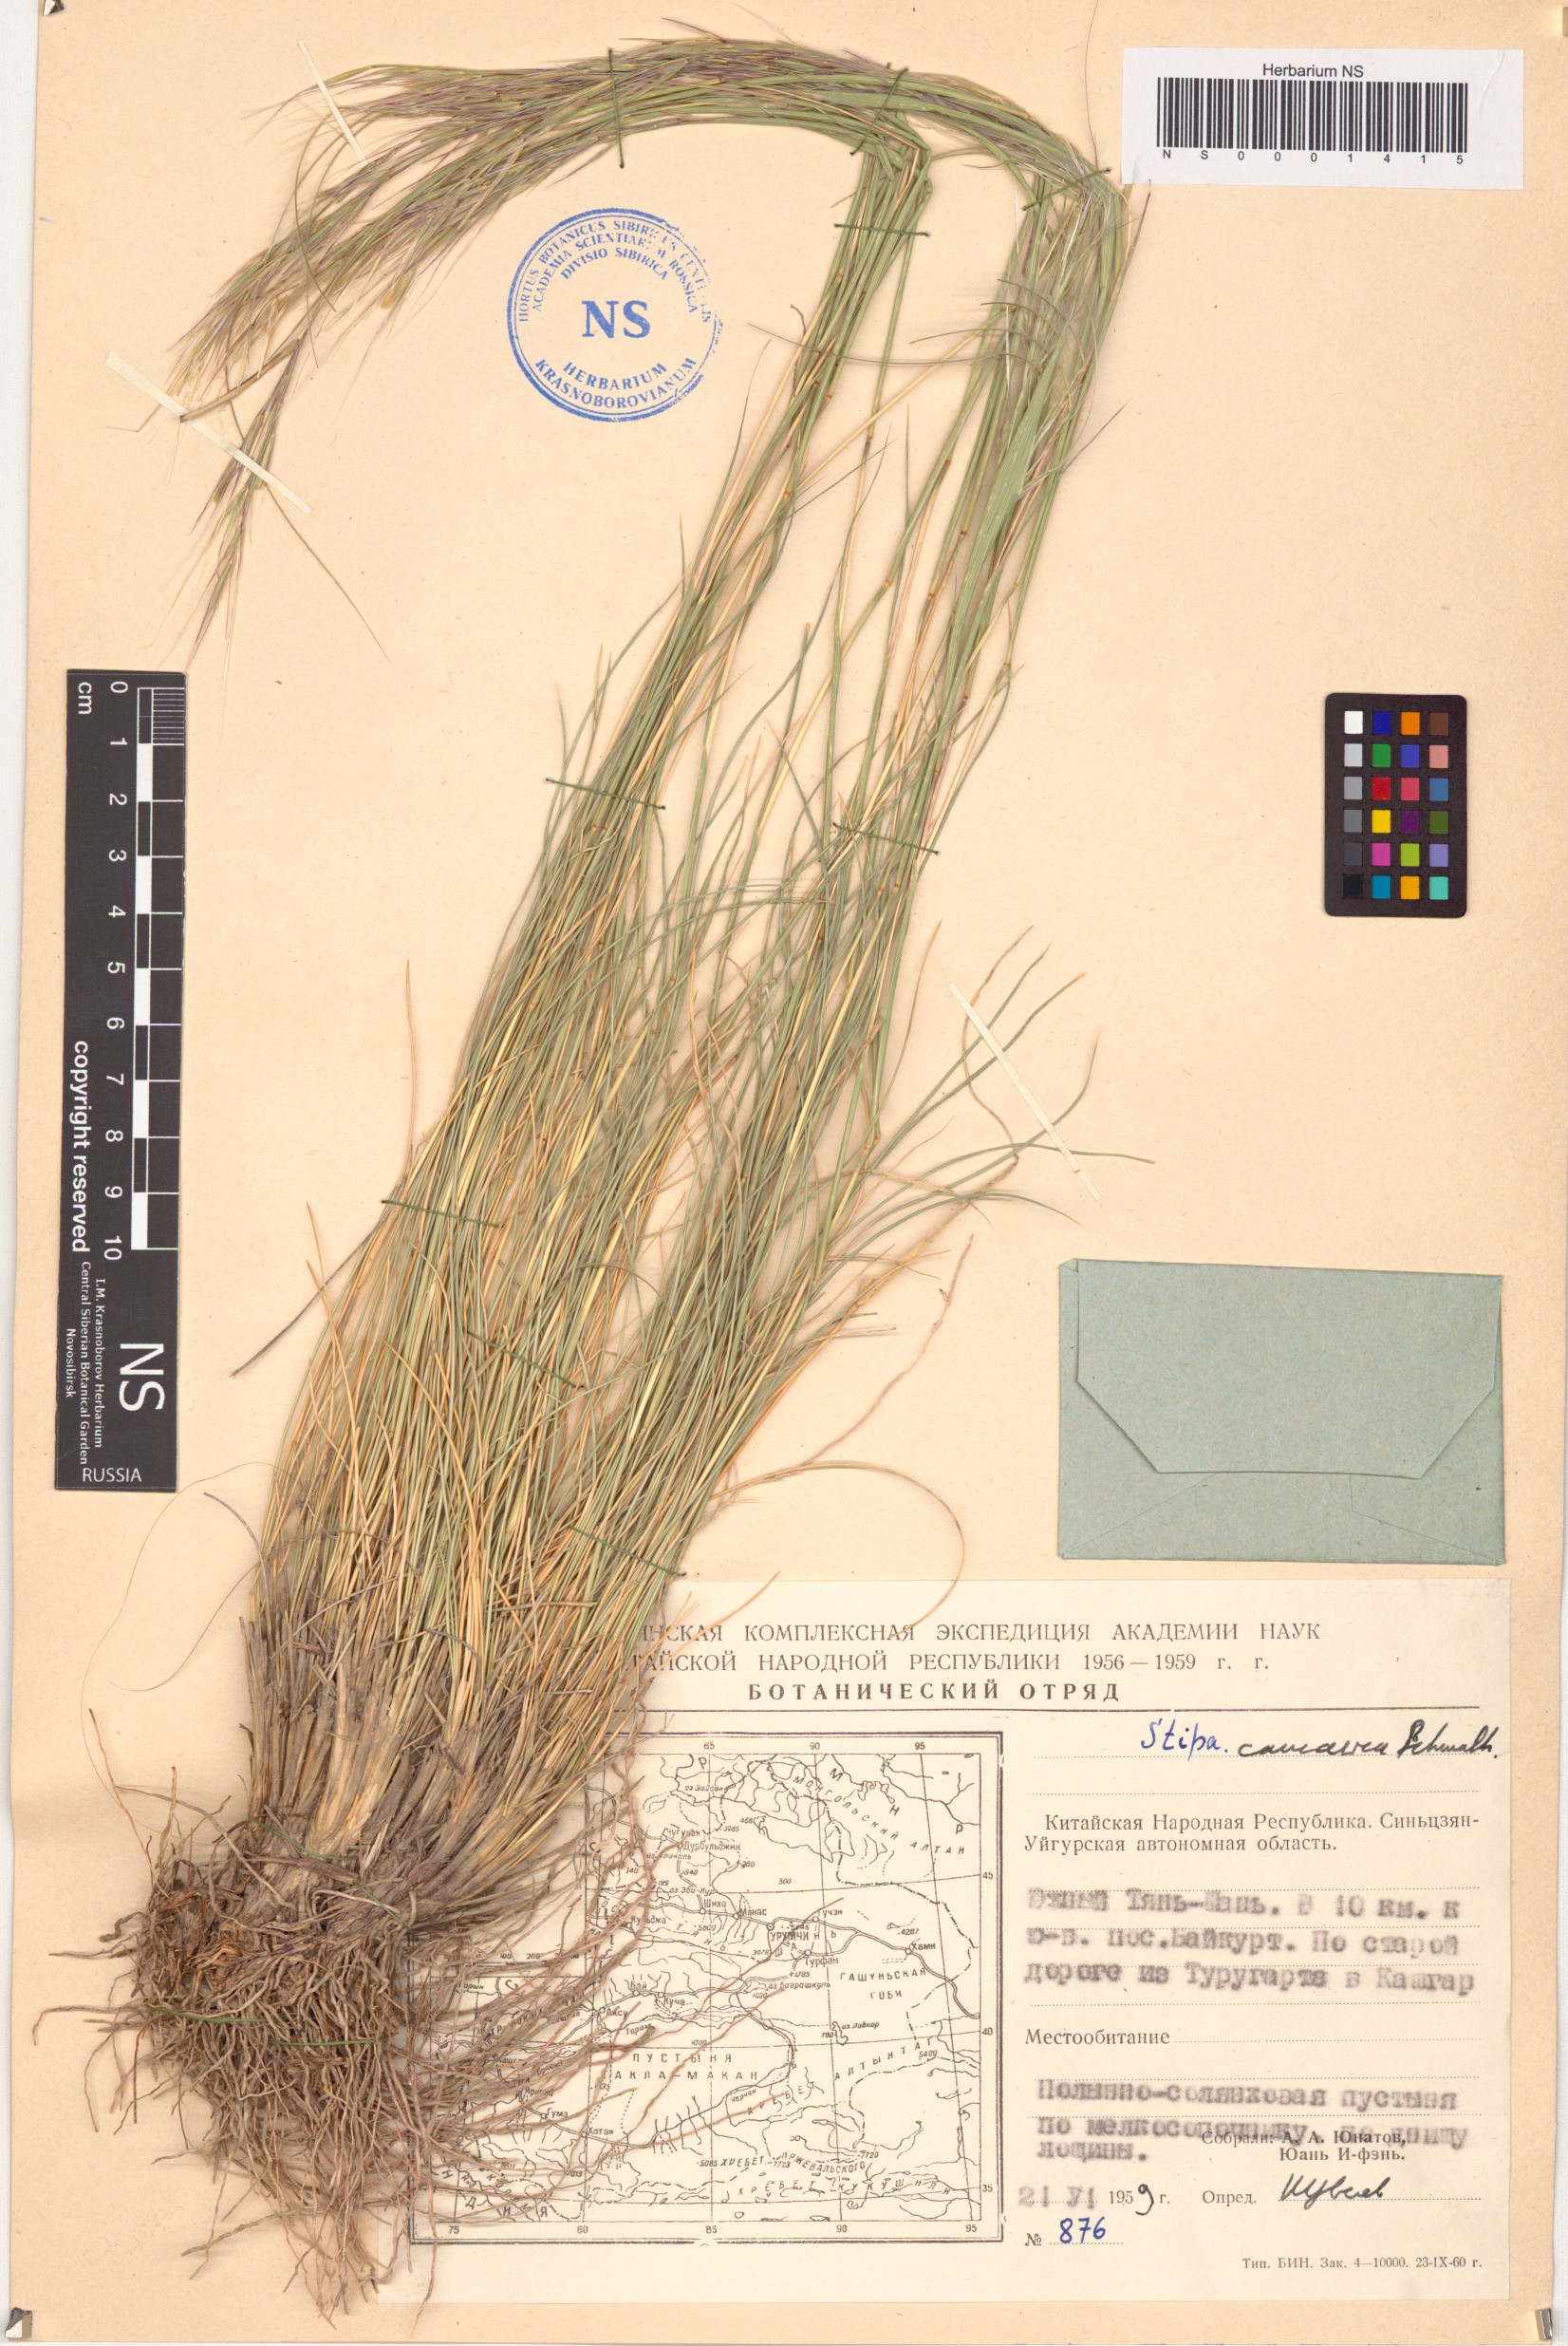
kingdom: Plantae
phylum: Tracheophyta
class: Liliopsida
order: Poales
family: Poaceae
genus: Stipa
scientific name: Stipa caucasica
